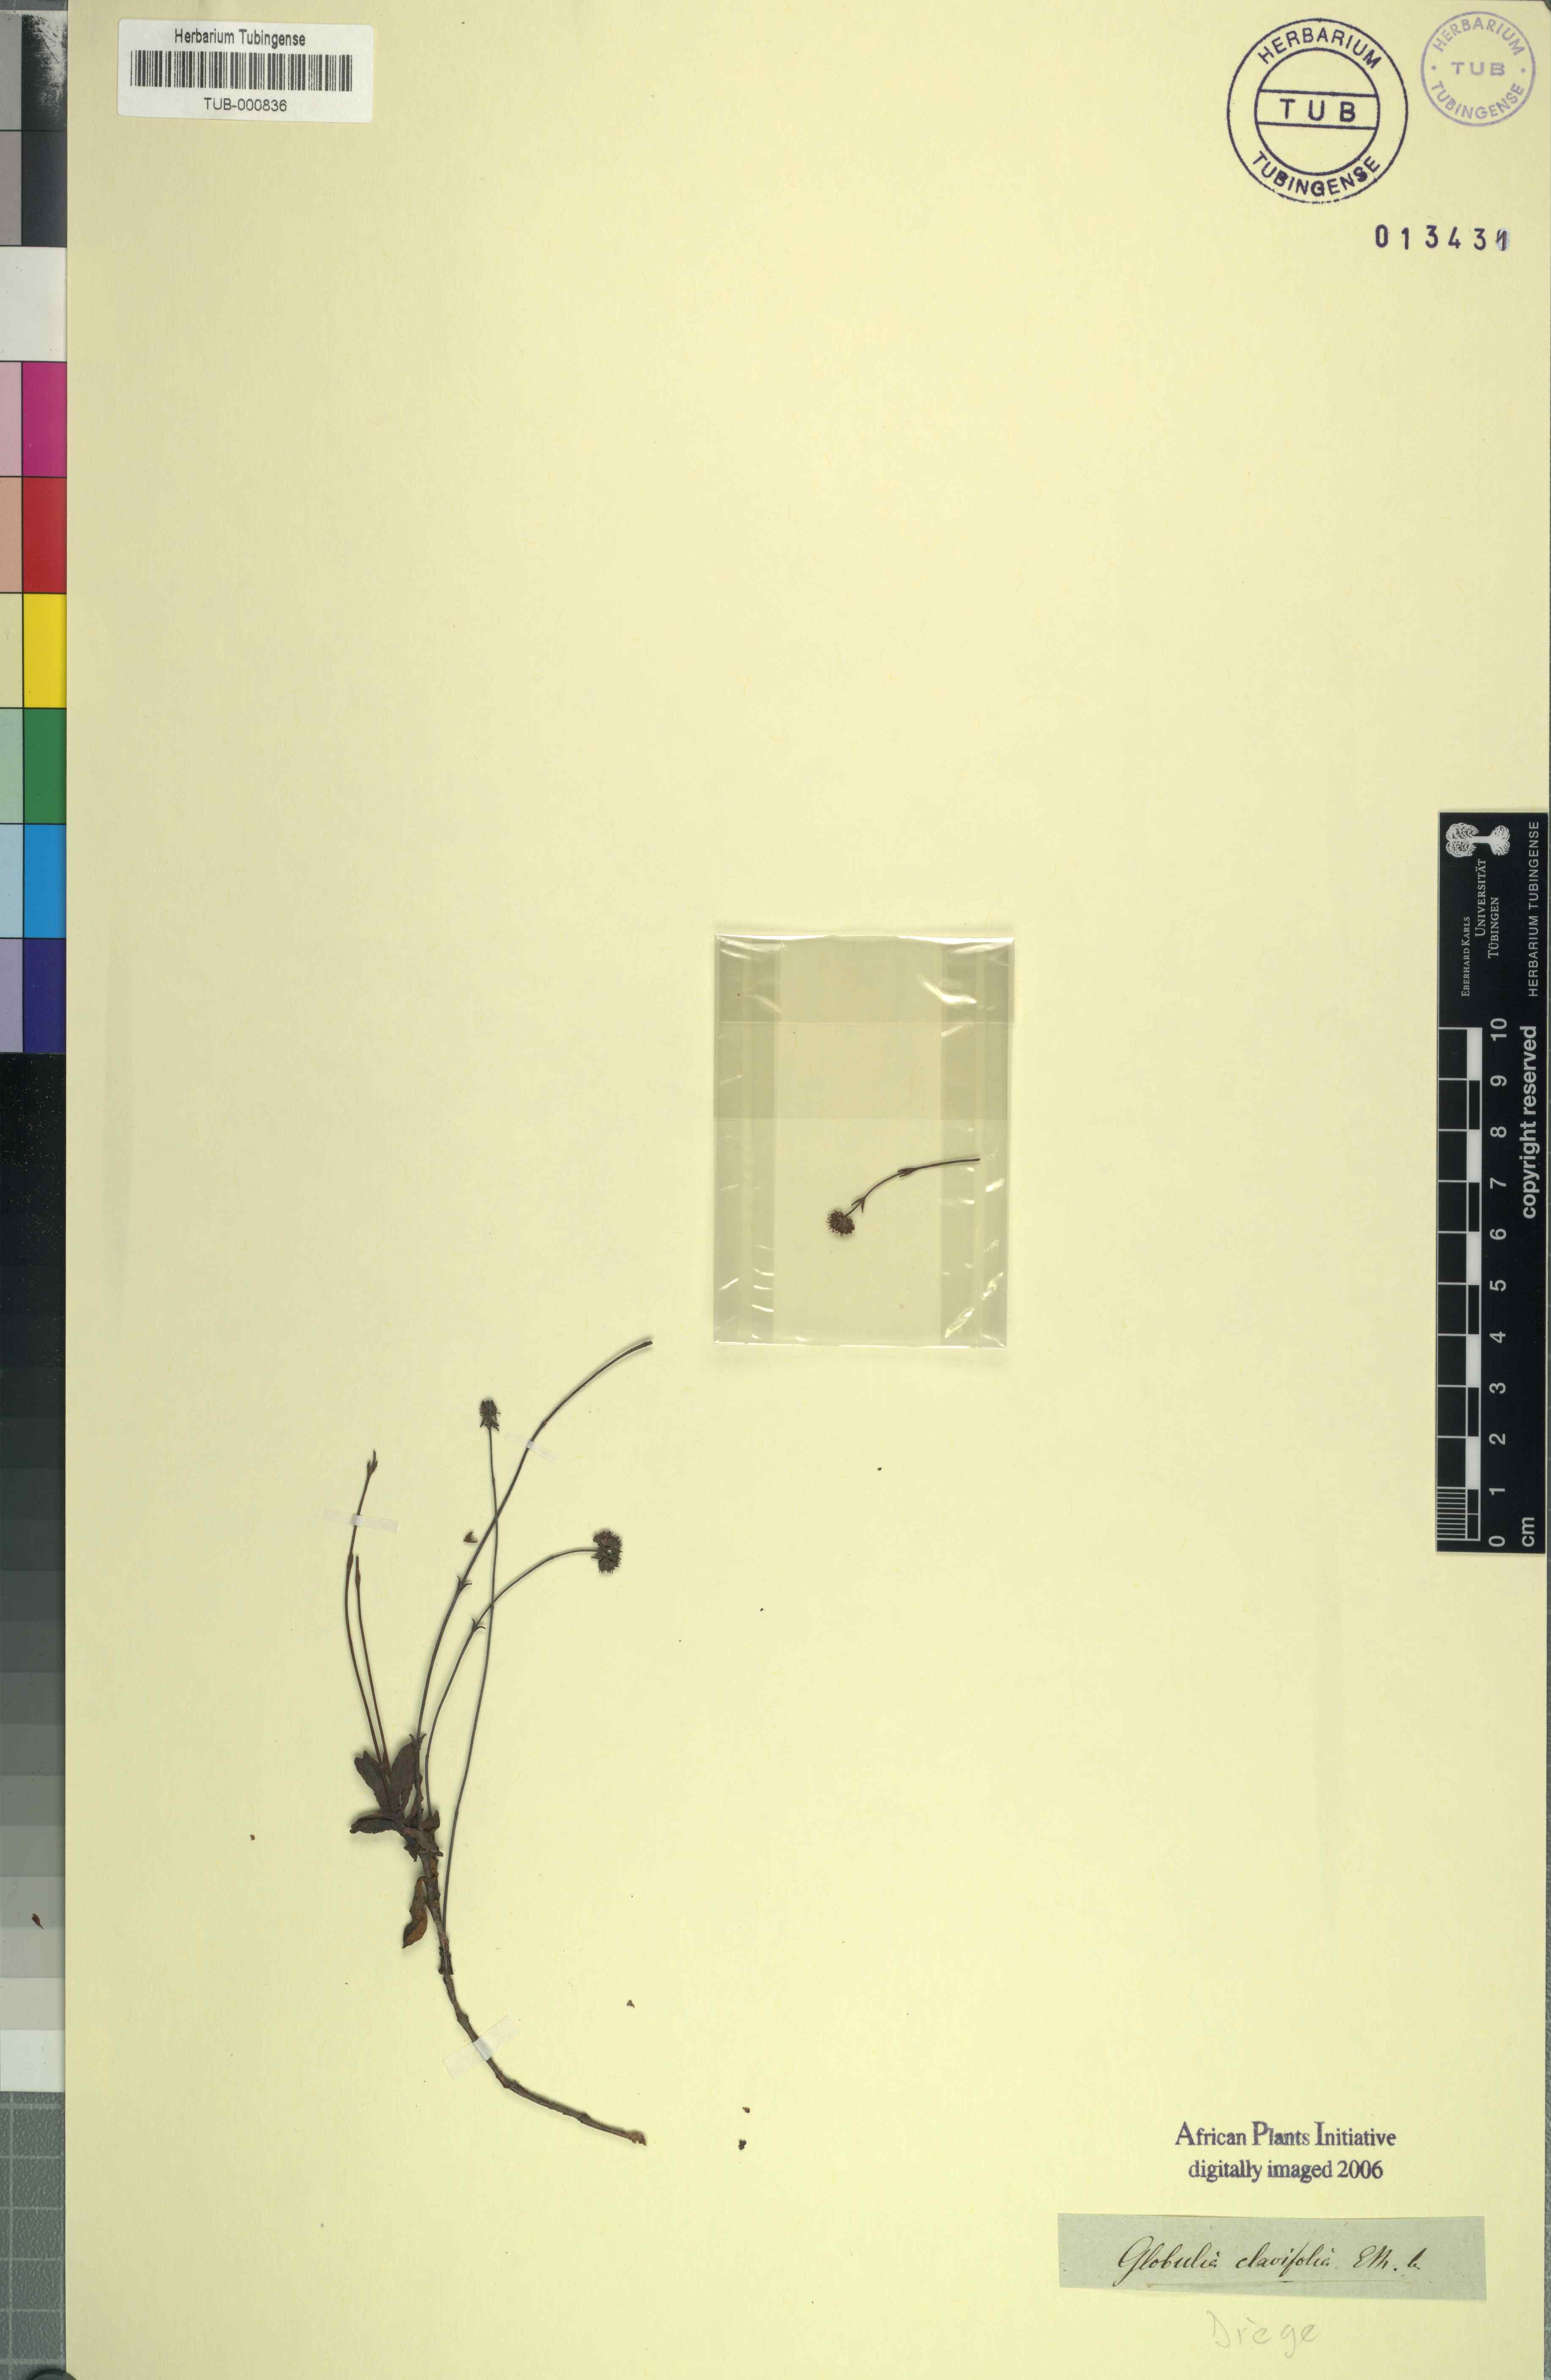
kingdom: Plantae
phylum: Tracheophyta
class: Magnoliopsida
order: Saxifragales
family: Crassulaceae
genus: Crassula
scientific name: Crassula atropurpurea
